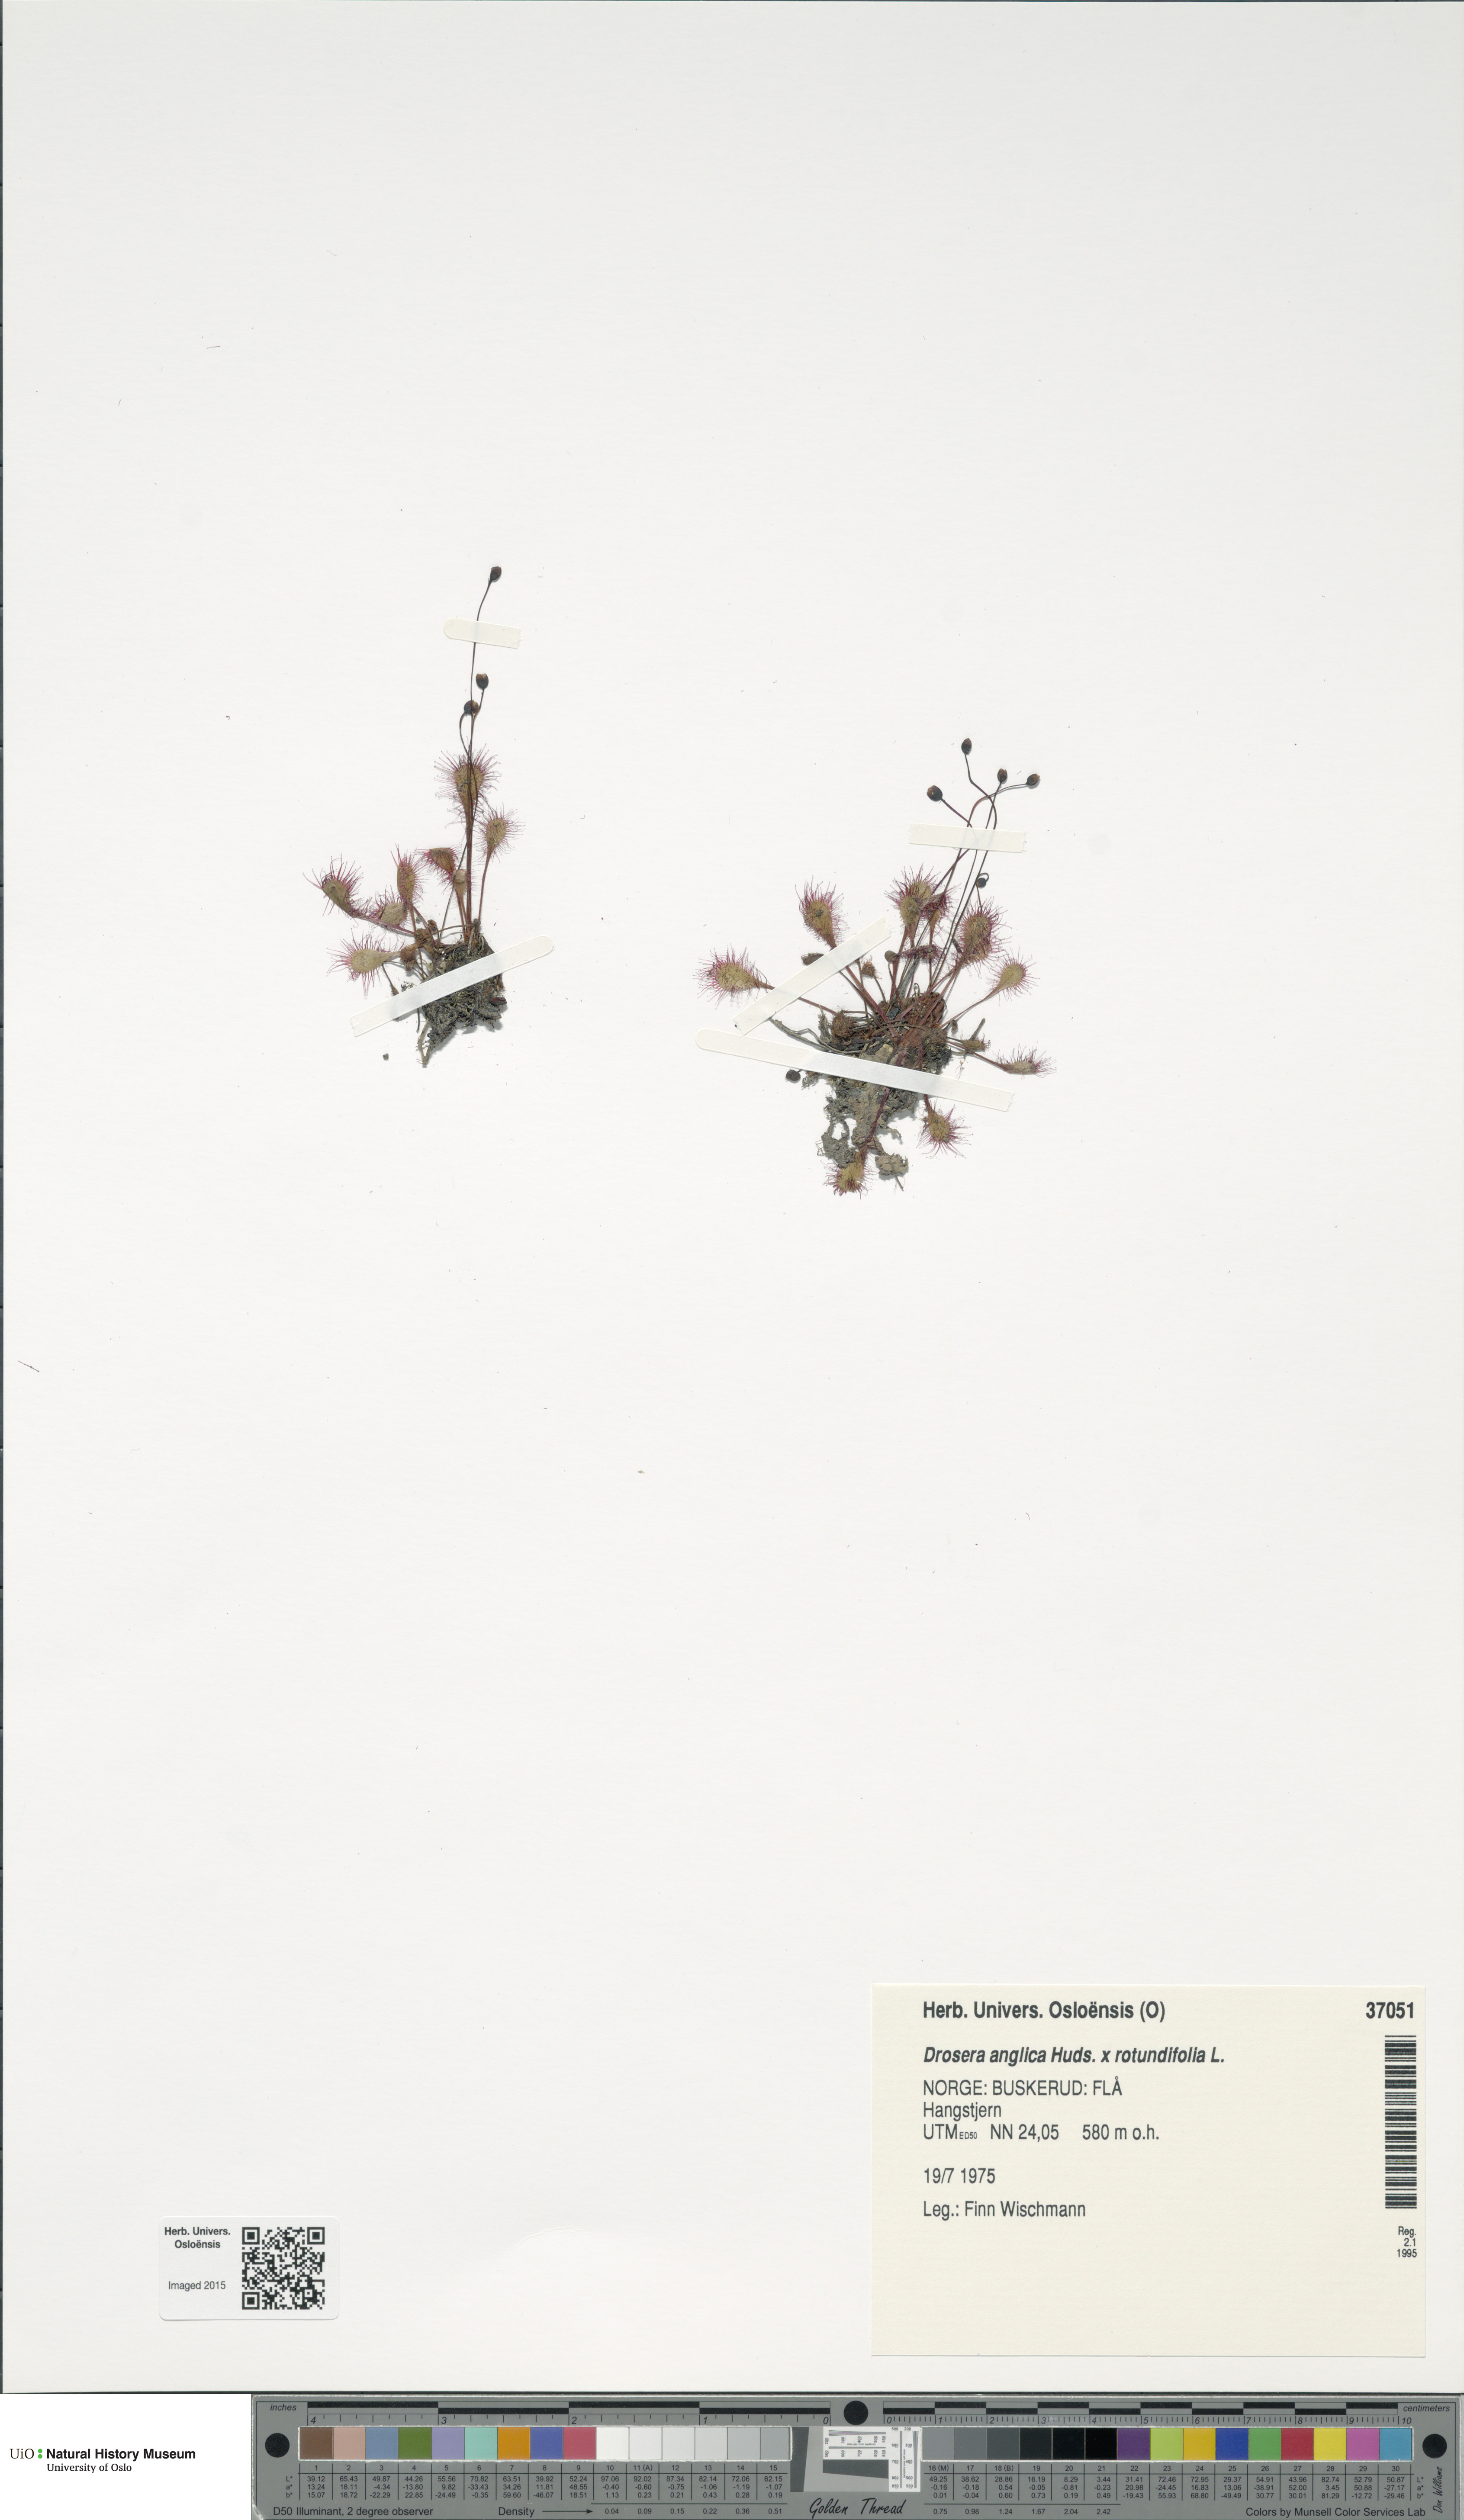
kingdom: Plantae
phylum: Tracheophyta
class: Magnoliopsida
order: Caryophyllales
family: Droseraceae
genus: Drosera
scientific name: Drosera
